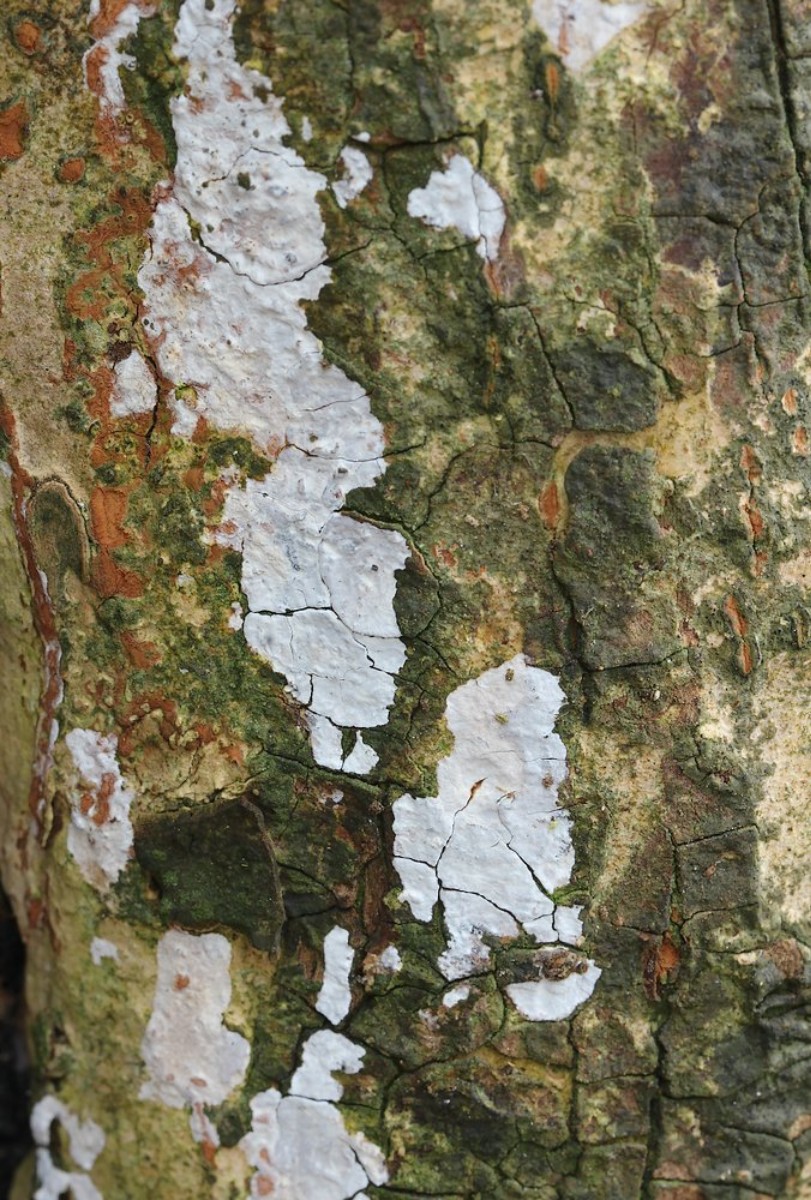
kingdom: Fungi
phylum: Basidiomycota
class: Agaricomycetes
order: Agaricales
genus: Dendrothele
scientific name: Dendrothele acerina
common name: navr-kalkplet
